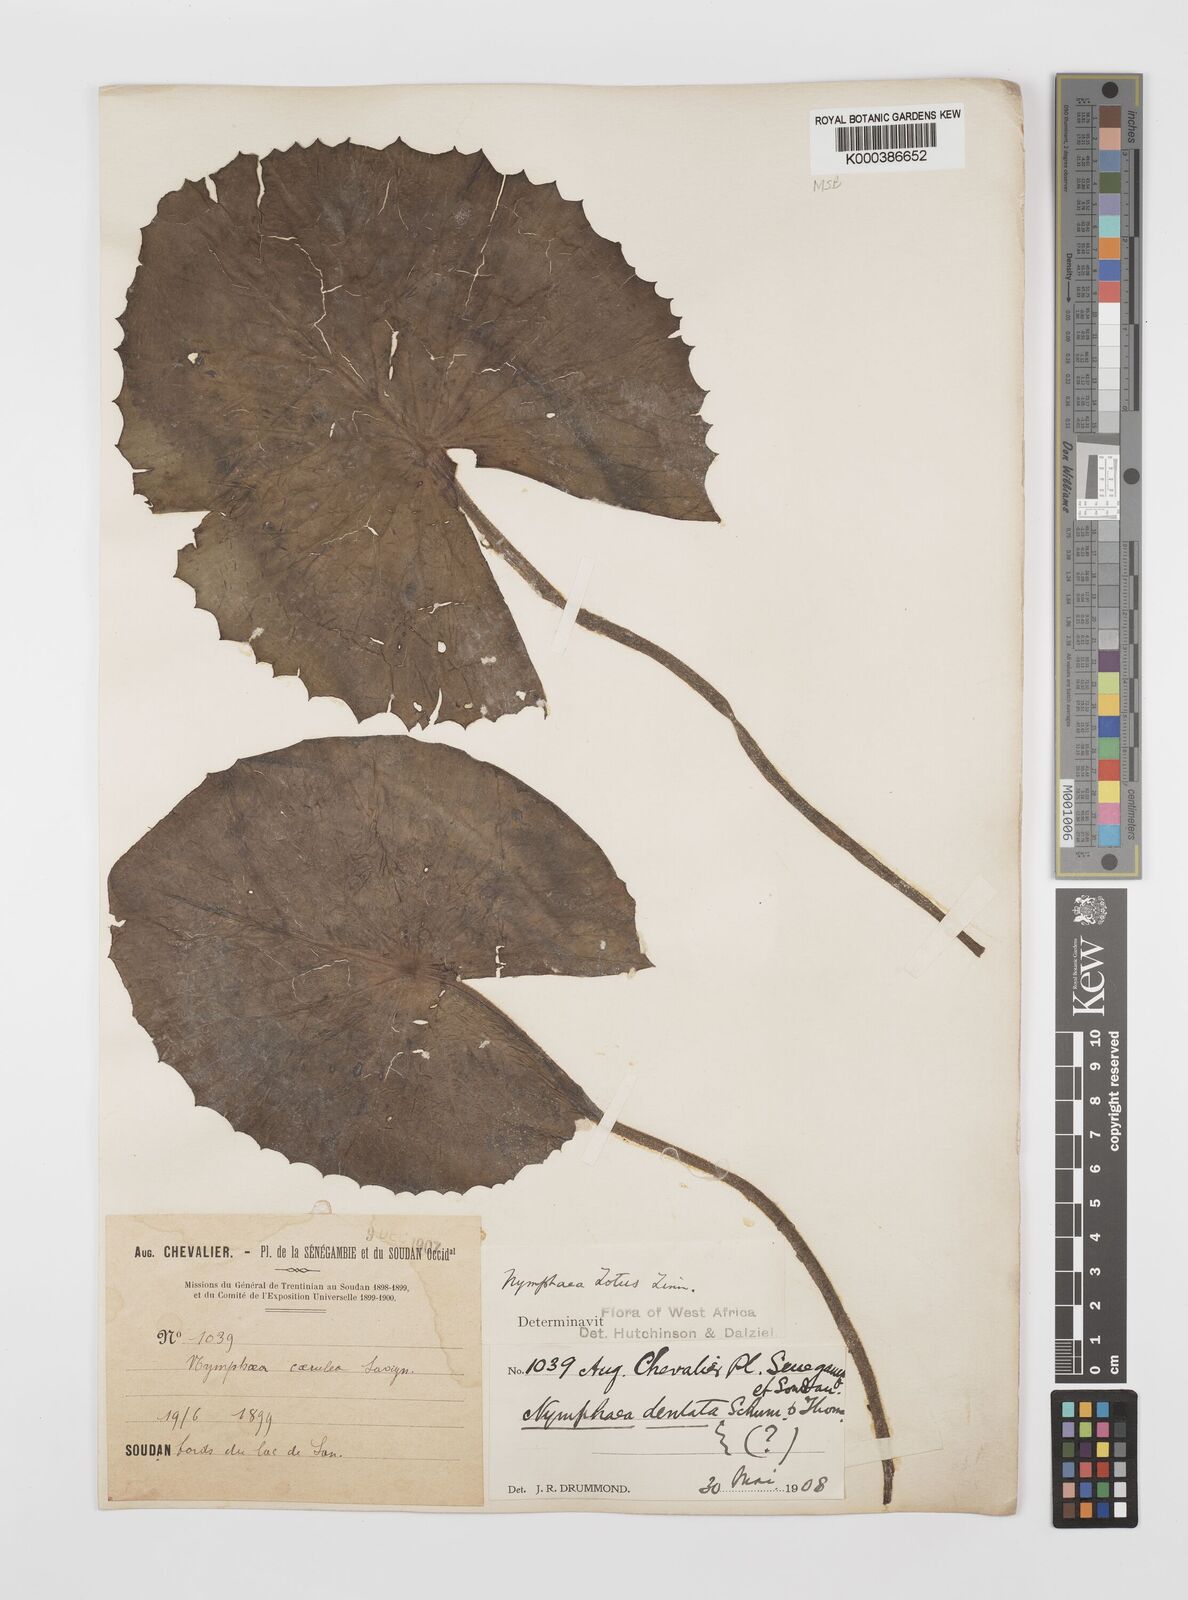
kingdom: Plantae
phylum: Tracheophyta
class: Magnoliopsida
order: Nymphaeales
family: Nymphaeaceae
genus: Nymphaea
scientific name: Nymphaea lotus
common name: White egyptian lotus
